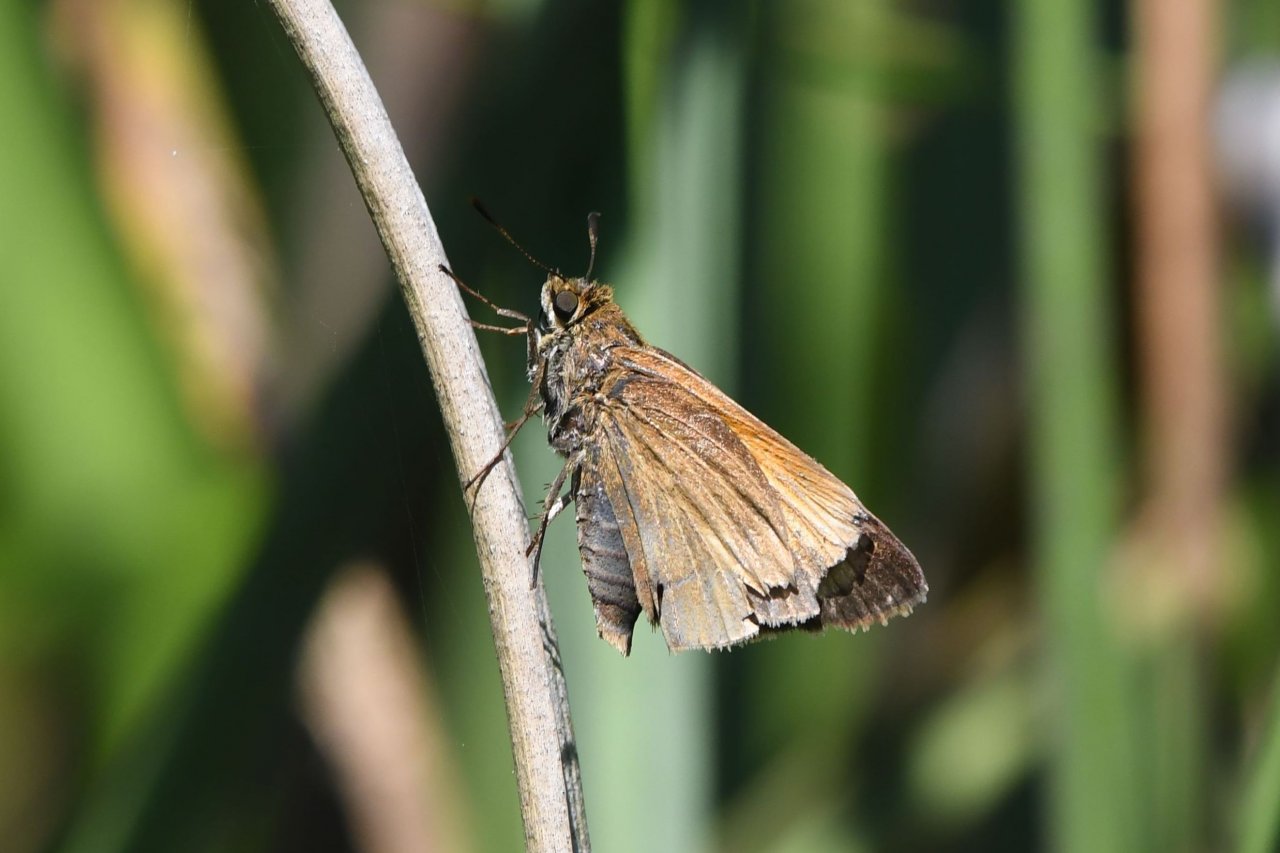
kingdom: Animalia
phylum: Arthropoda
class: Insecta
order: Lepidoptera
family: Hesperiidae
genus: Euphyes
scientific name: Euphyes pilatka
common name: Palatka Skipper
